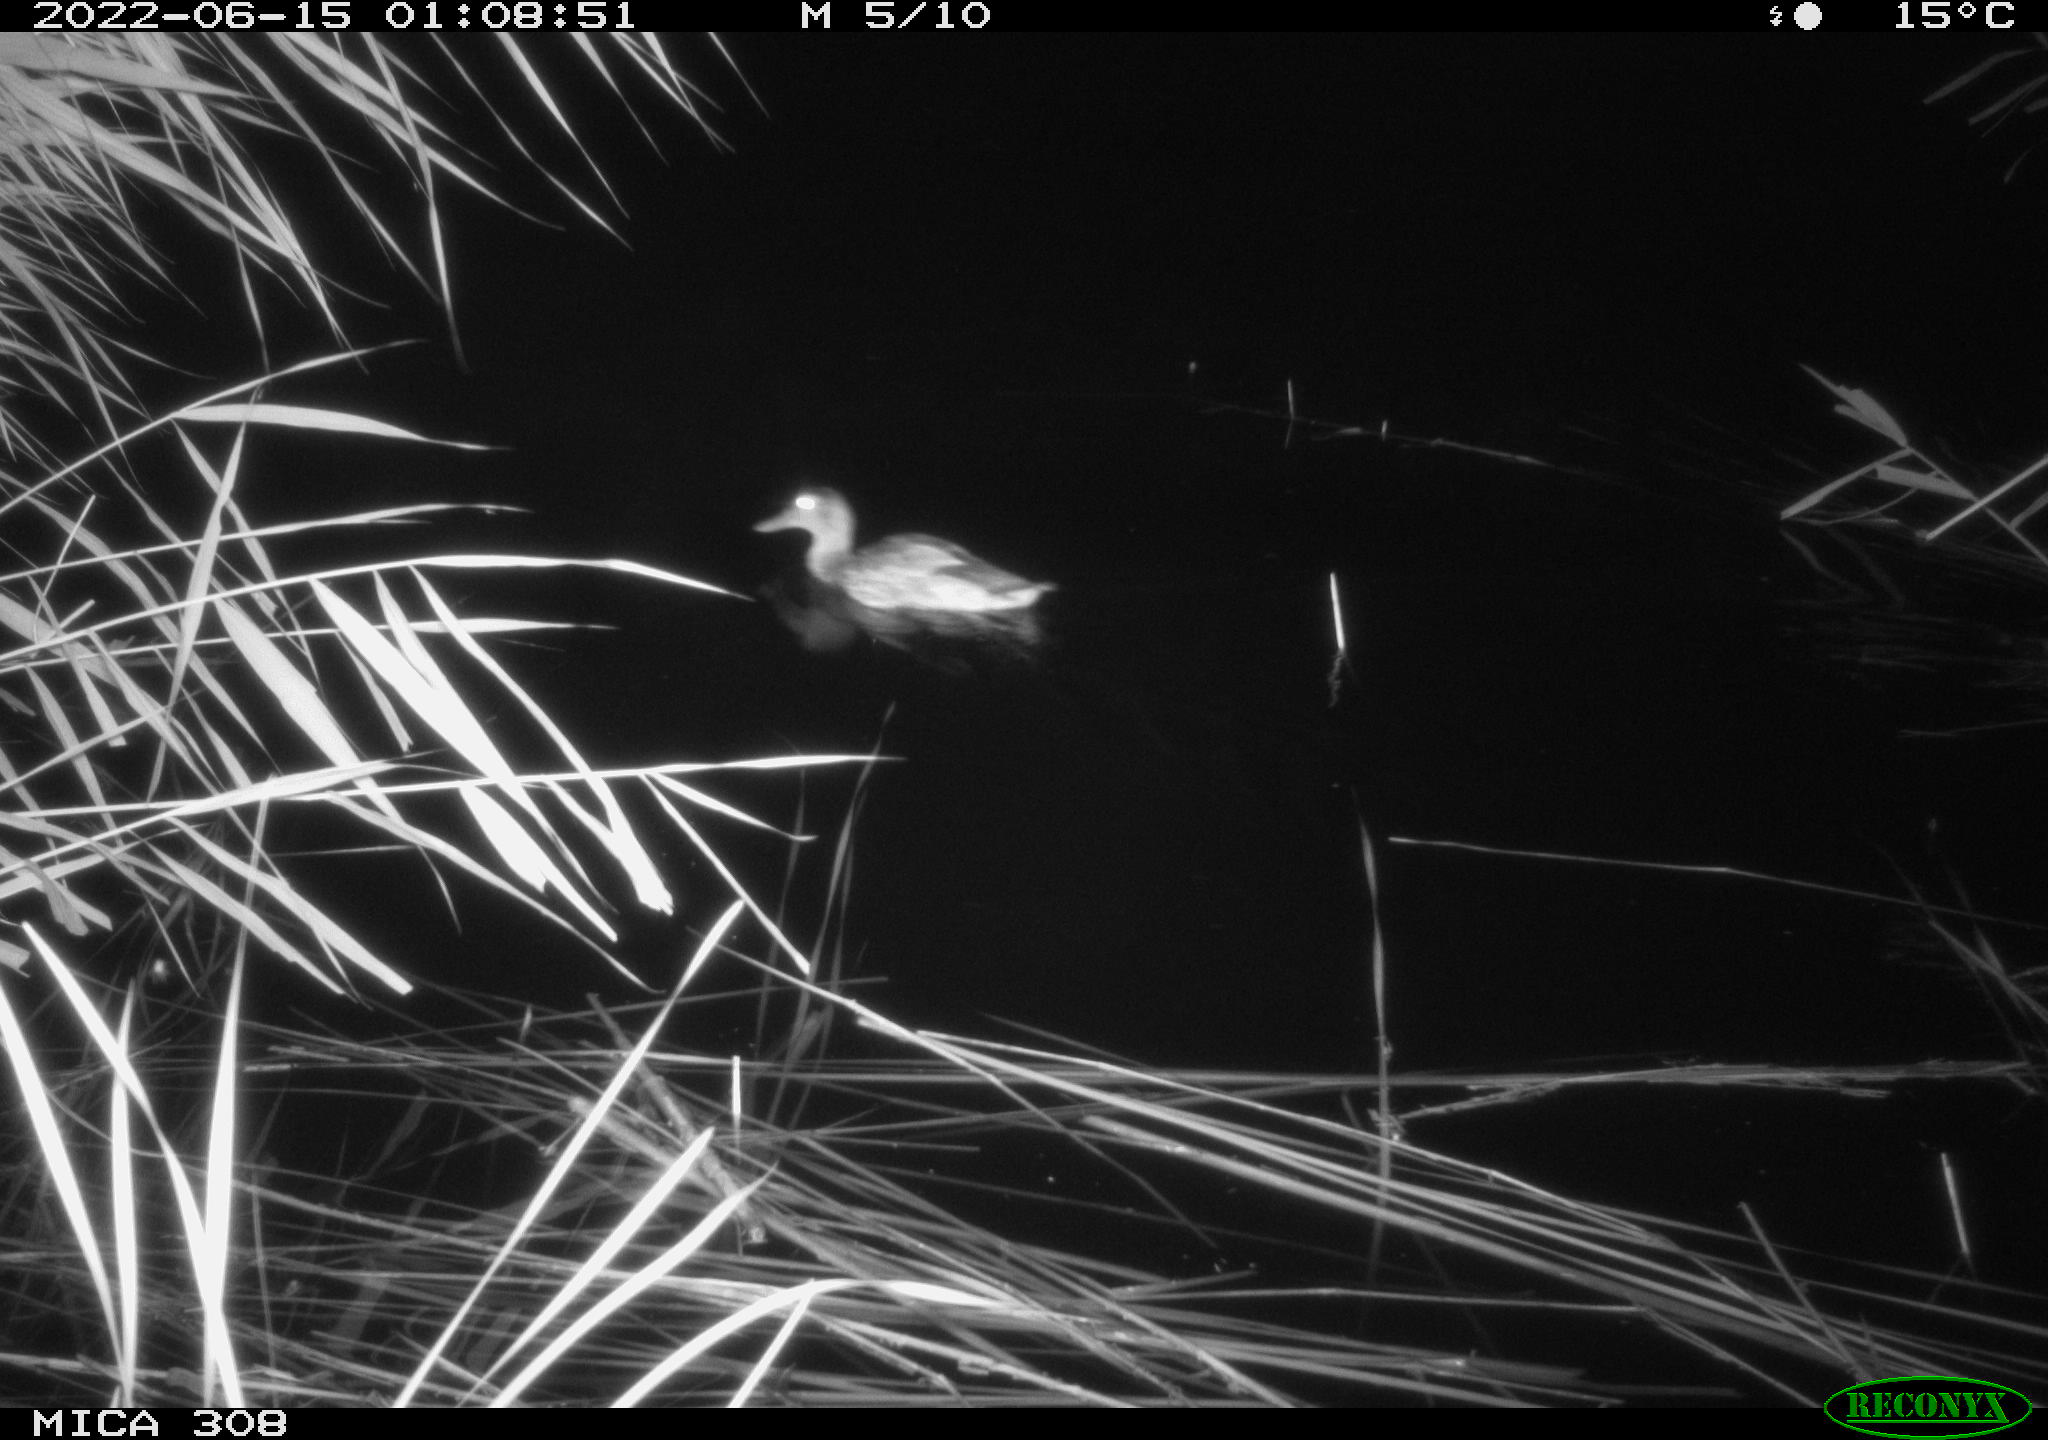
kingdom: Animalia
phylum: Chordata
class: Aves
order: Anseriformes
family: Anatidae
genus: Anas
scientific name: Anas platyrhynchos
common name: Mallard
